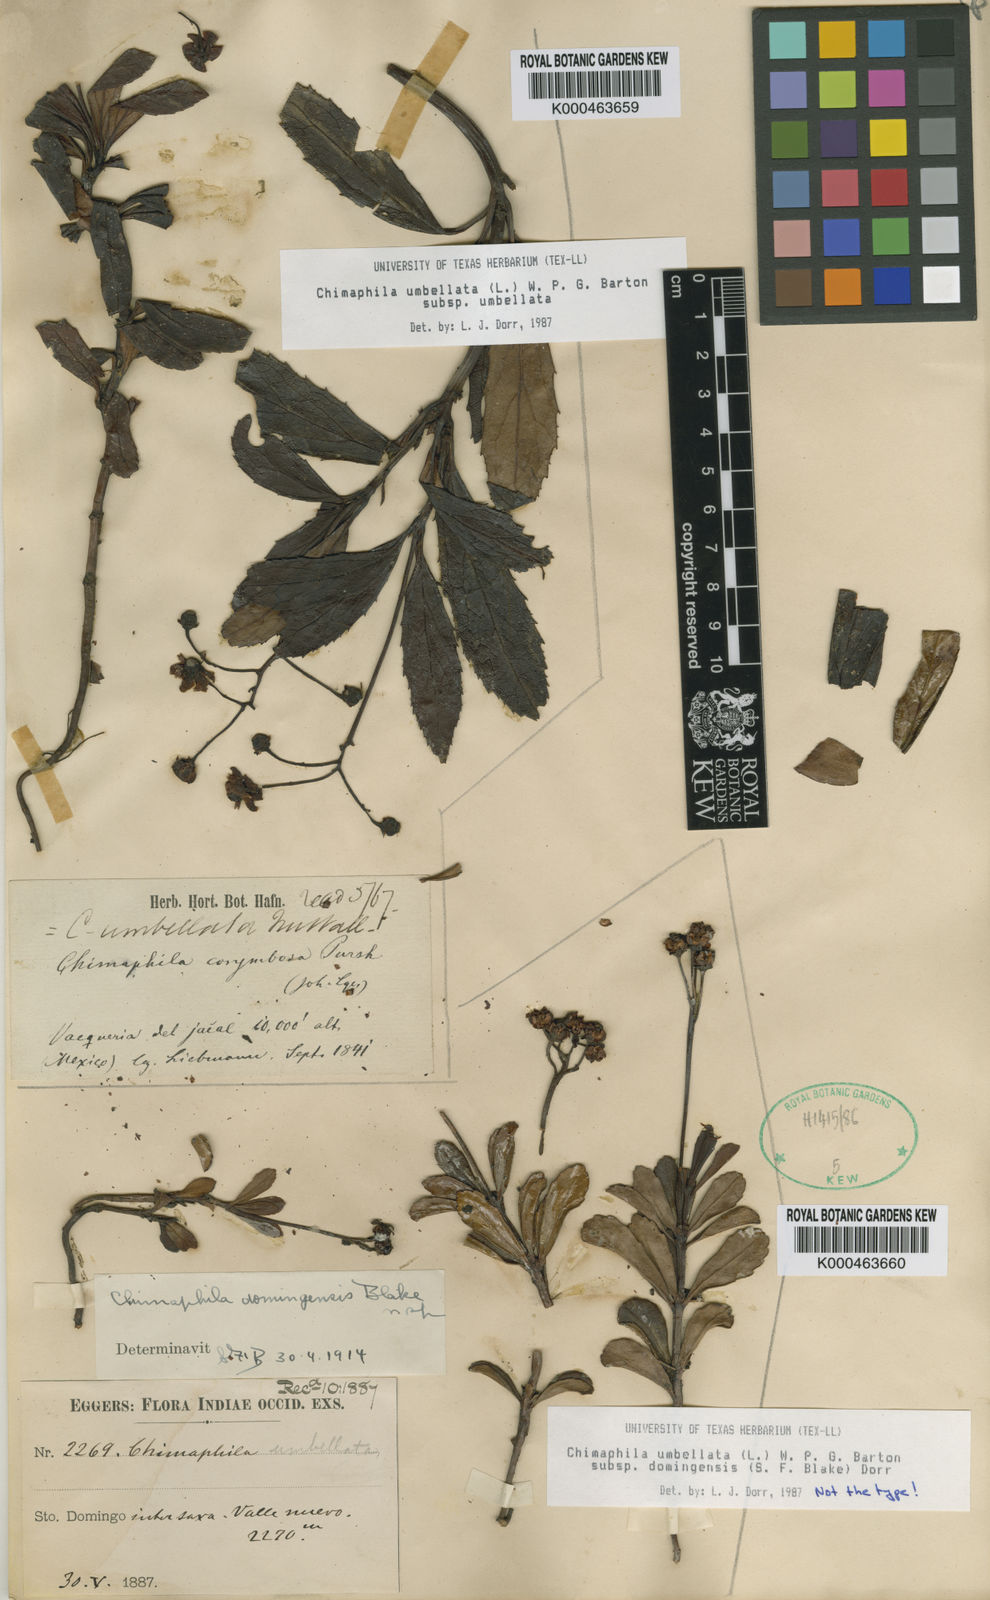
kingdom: Plantae
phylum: Tracheophyta
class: Magnoliopsida
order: Ericales
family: Ericaceae
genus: Chimaphila
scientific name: Chimaphila umbellata
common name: Pipsissewa
